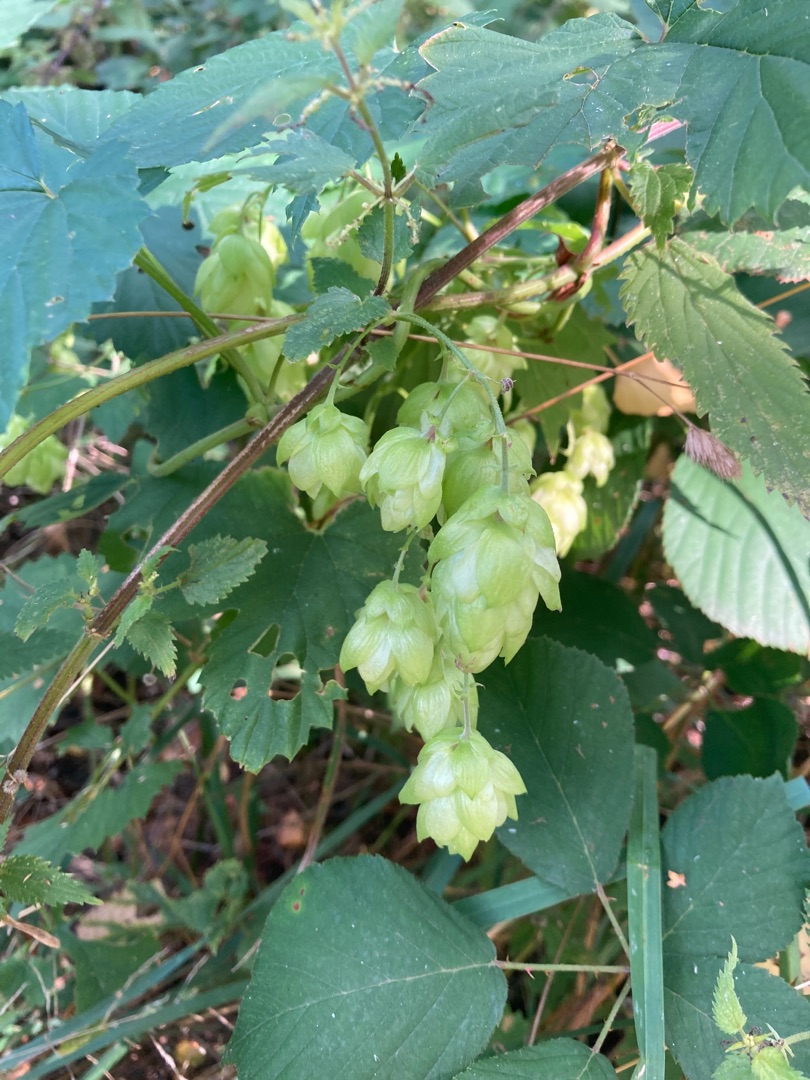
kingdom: Plantae
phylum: Tracheophyta
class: Magnoliopsida
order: Rosales
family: Cannabaceae
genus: Humulus
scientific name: Humulus lupulus
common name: Humle
